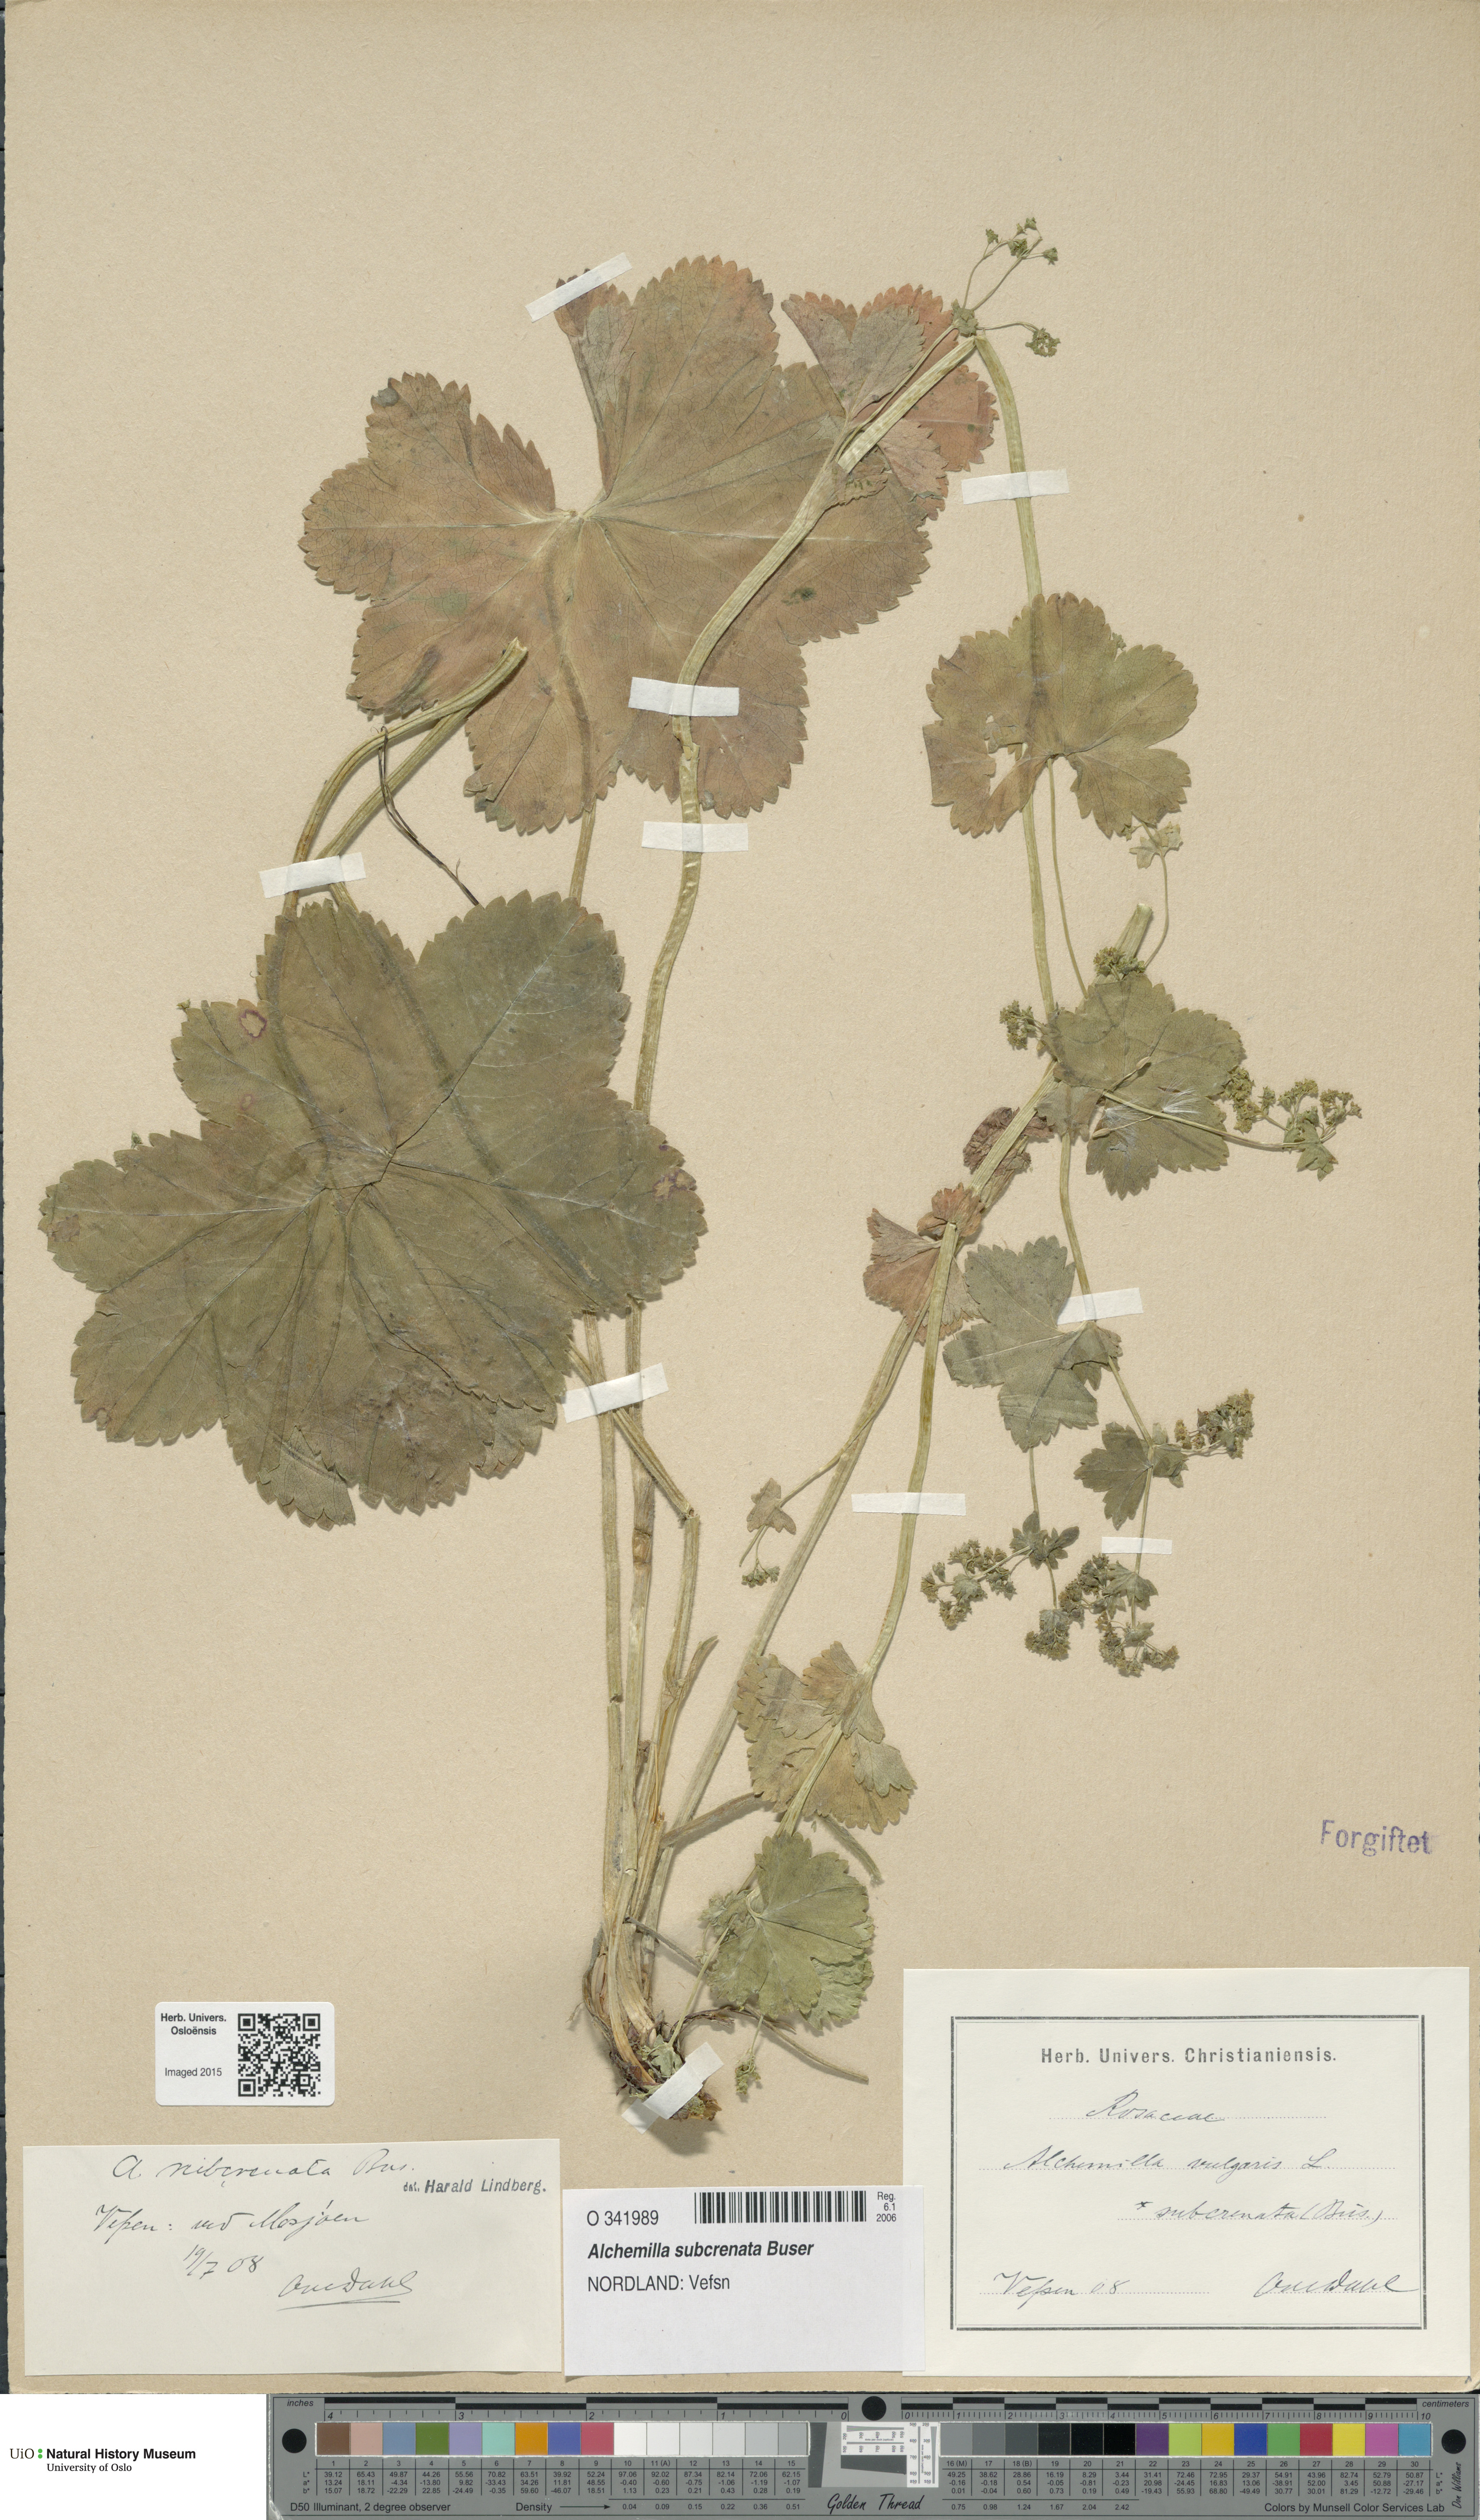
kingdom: Plantae
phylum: Tracheophyta
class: Magnoliopsida
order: Rosales
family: Rosaceae
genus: Alchemilla
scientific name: Alchemilla subcrenata
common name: Broadtooth lady's mantle
